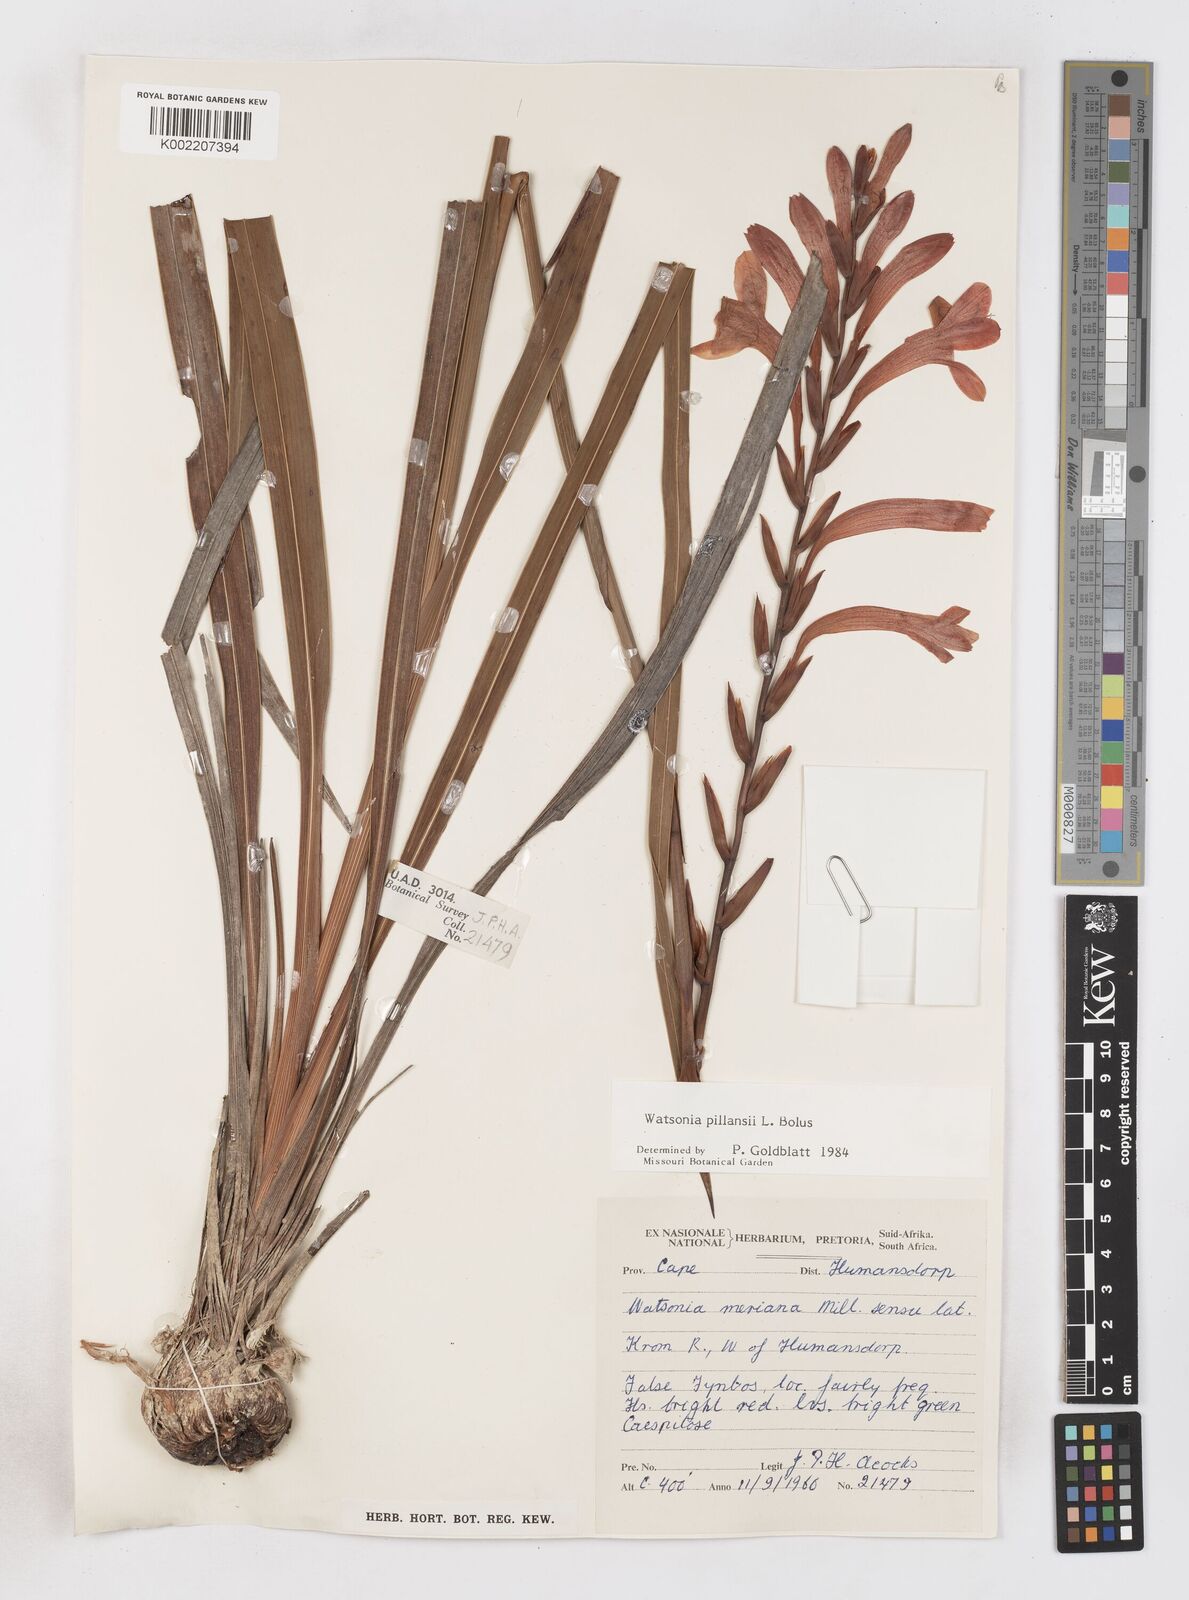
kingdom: Plantae
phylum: Tracheophyta
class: Liliopsida
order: Asparagales
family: Iridaceae
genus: Watsonia
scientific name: Watsonia pillansii
